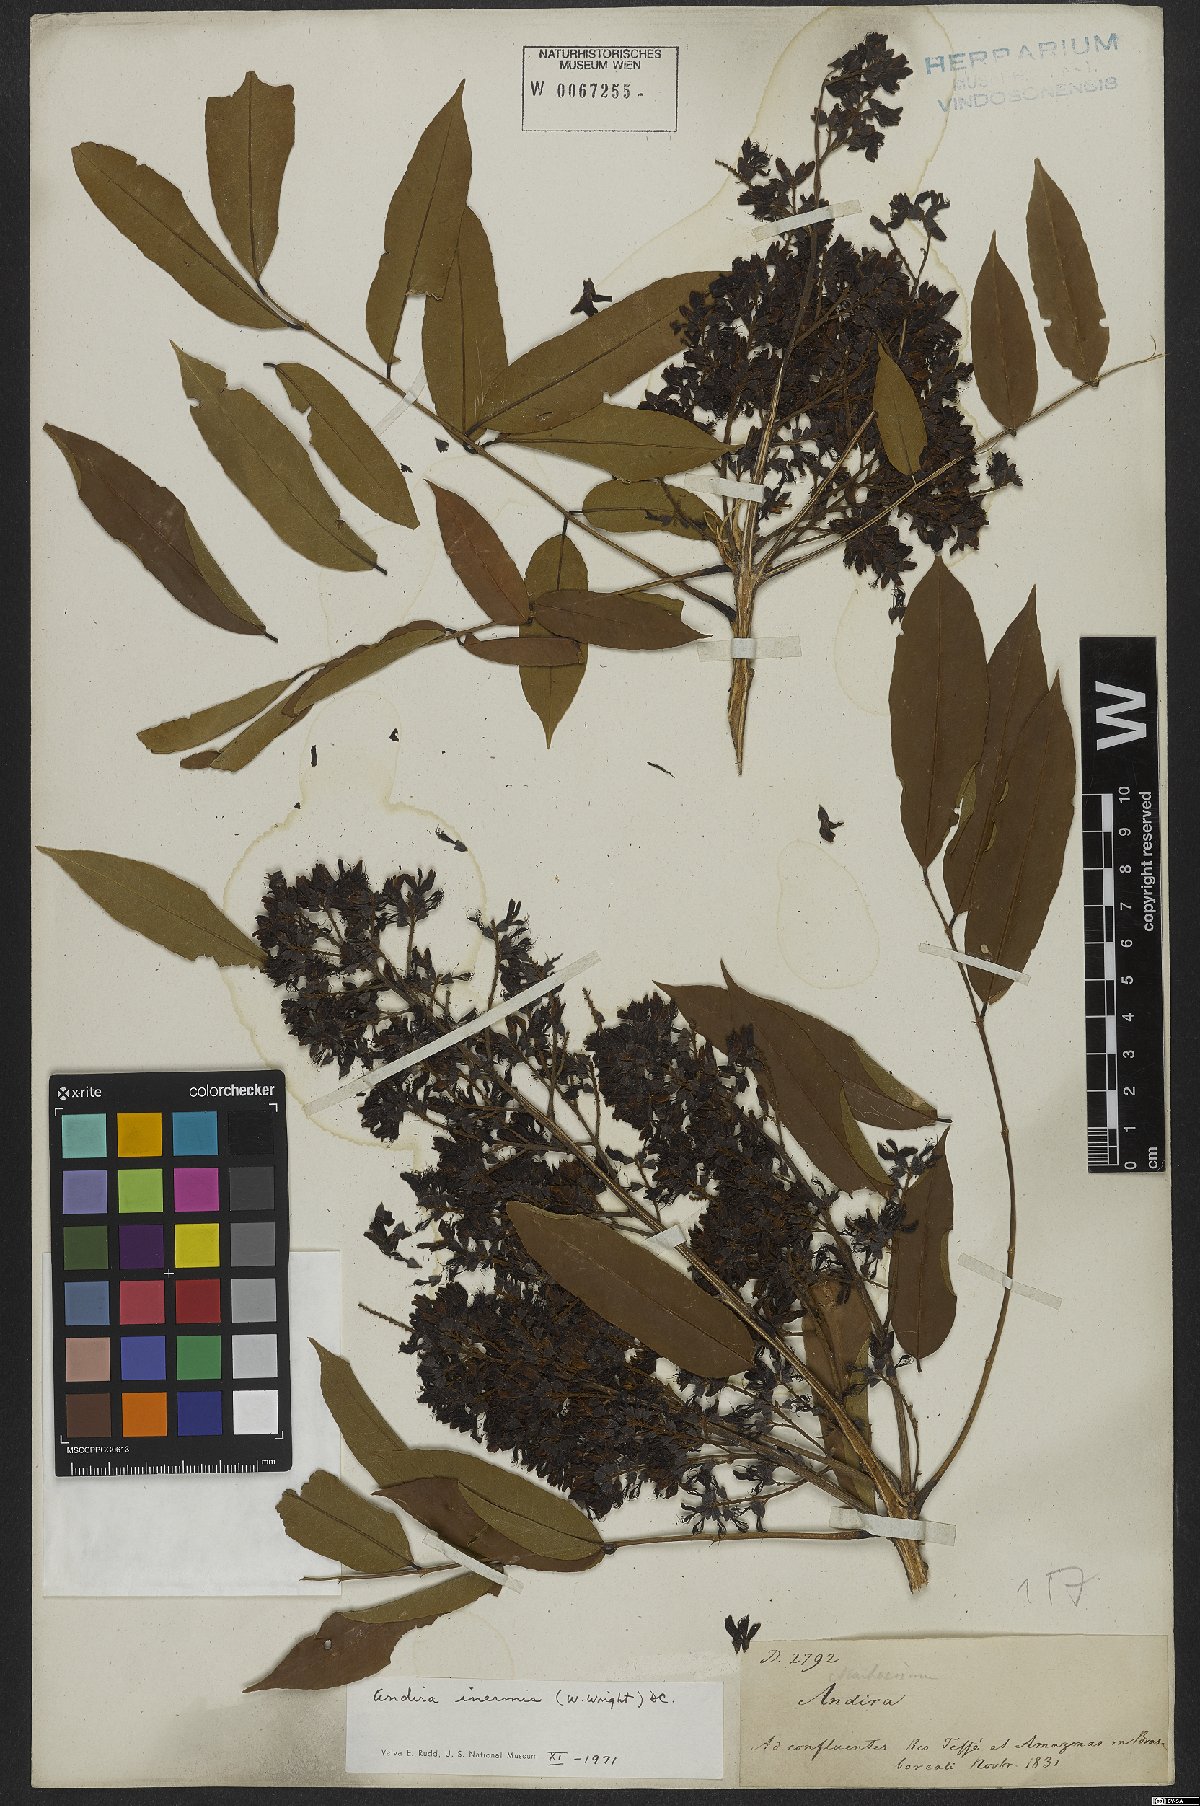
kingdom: Plantae
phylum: Tracheophyta
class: Magnoliopsida
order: Fabales
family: Fabaceae
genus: Andira
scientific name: Andira inermis
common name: Angelin
